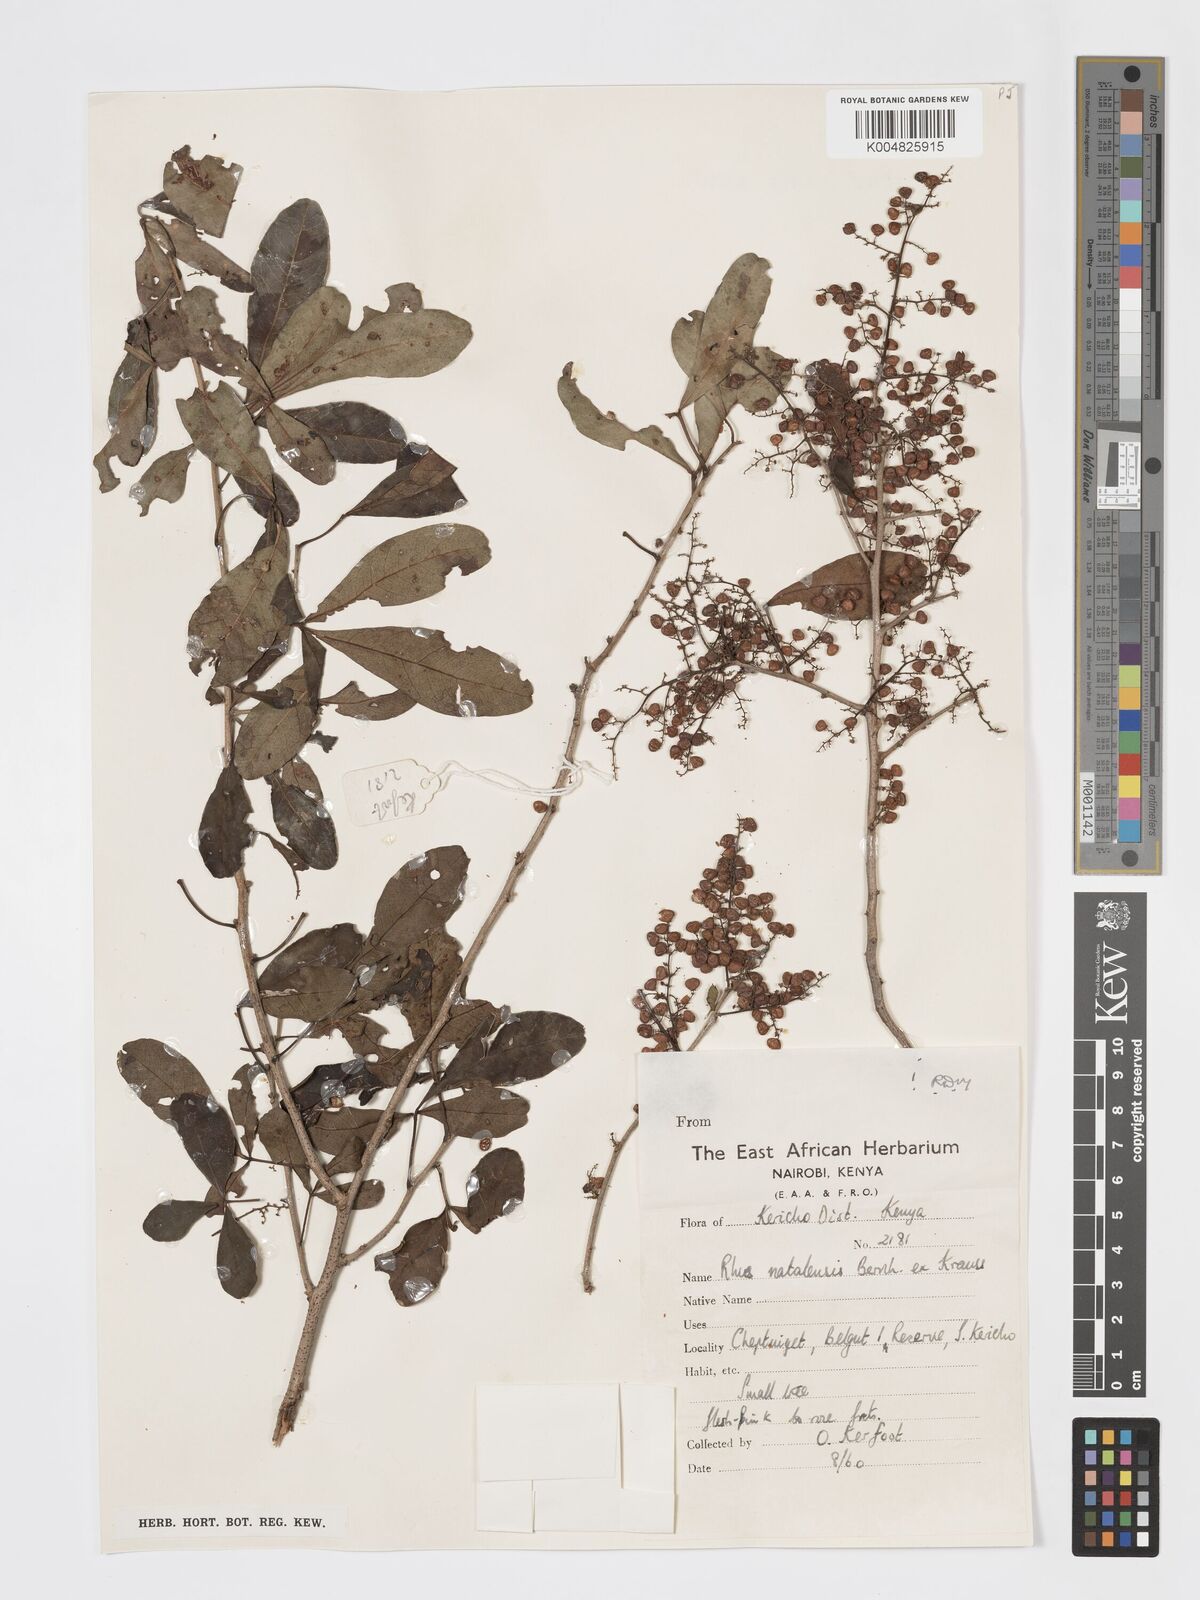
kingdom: Plantae
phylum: Tracheophyta
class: Magnoliopsida
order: Sapindales
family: Anacardiaceae
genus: Searsia
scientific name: Searsia natalensis
